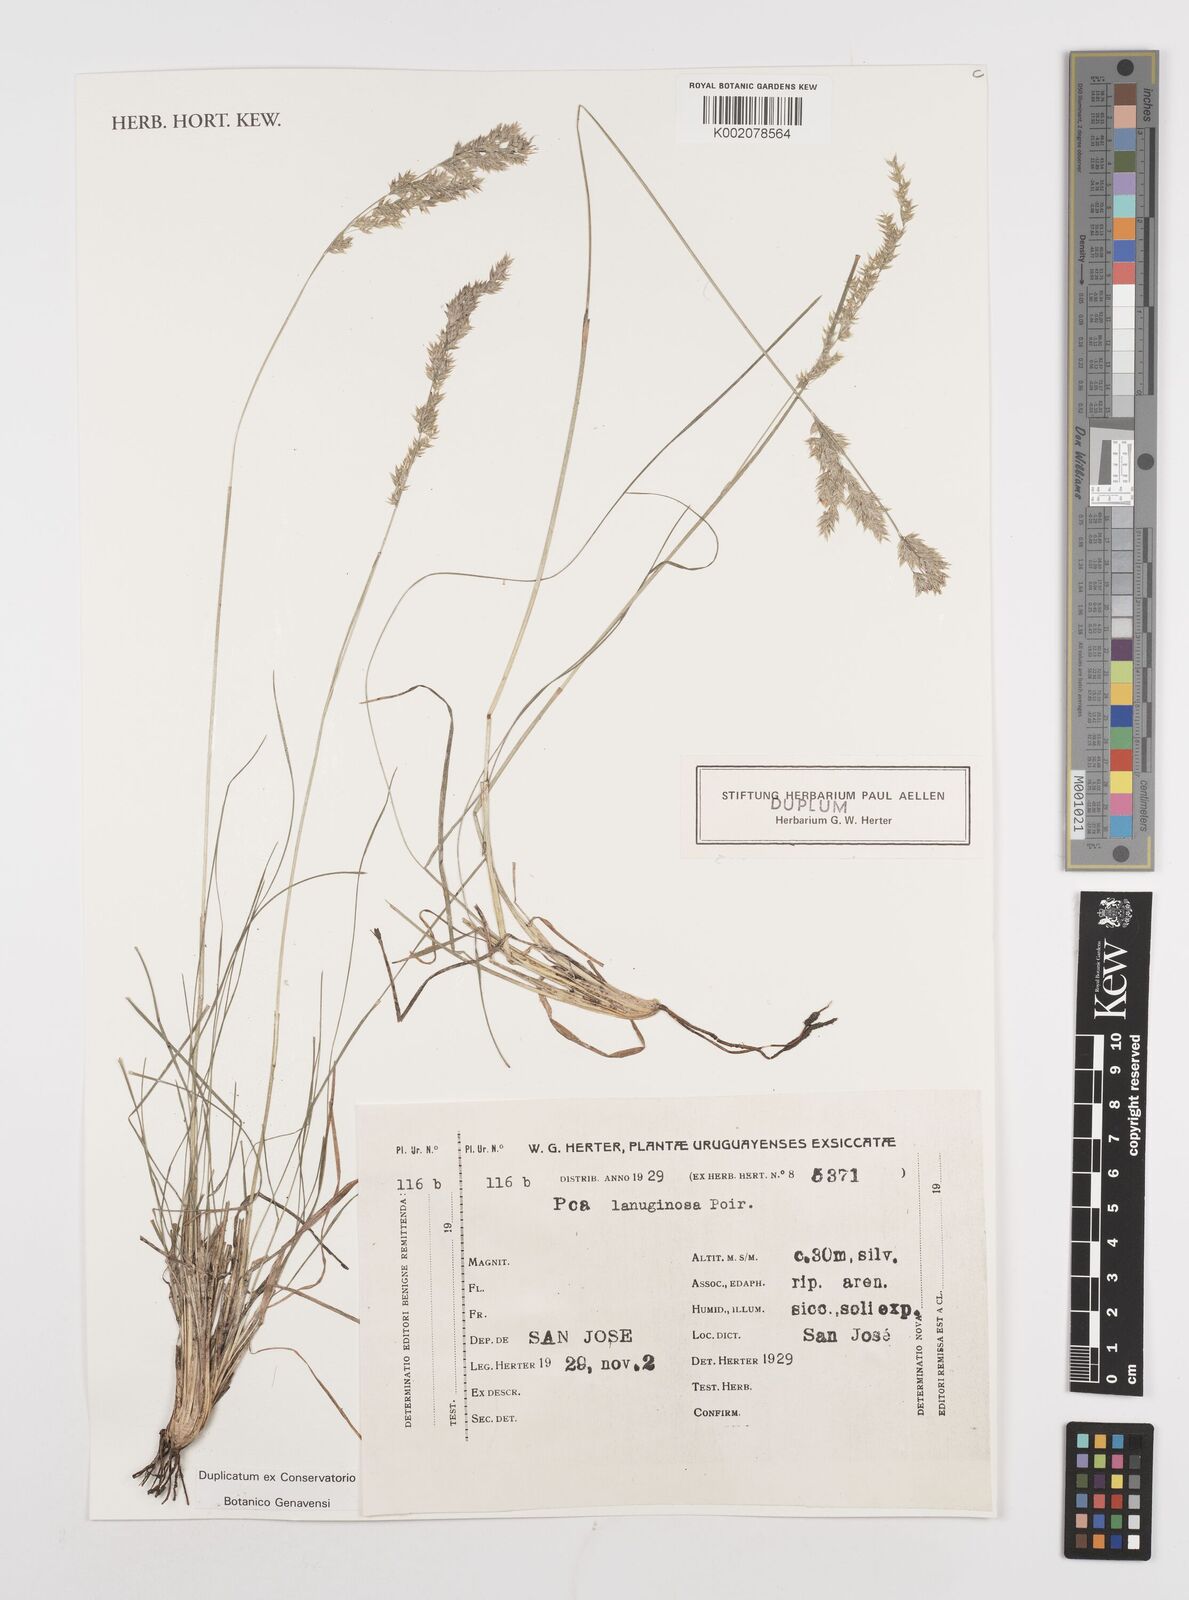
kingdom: Plantae
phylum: Tracheophyta
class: Liliopsida
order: Poales
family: Poaceae
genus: Poa
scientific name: Poa lanuginosa
